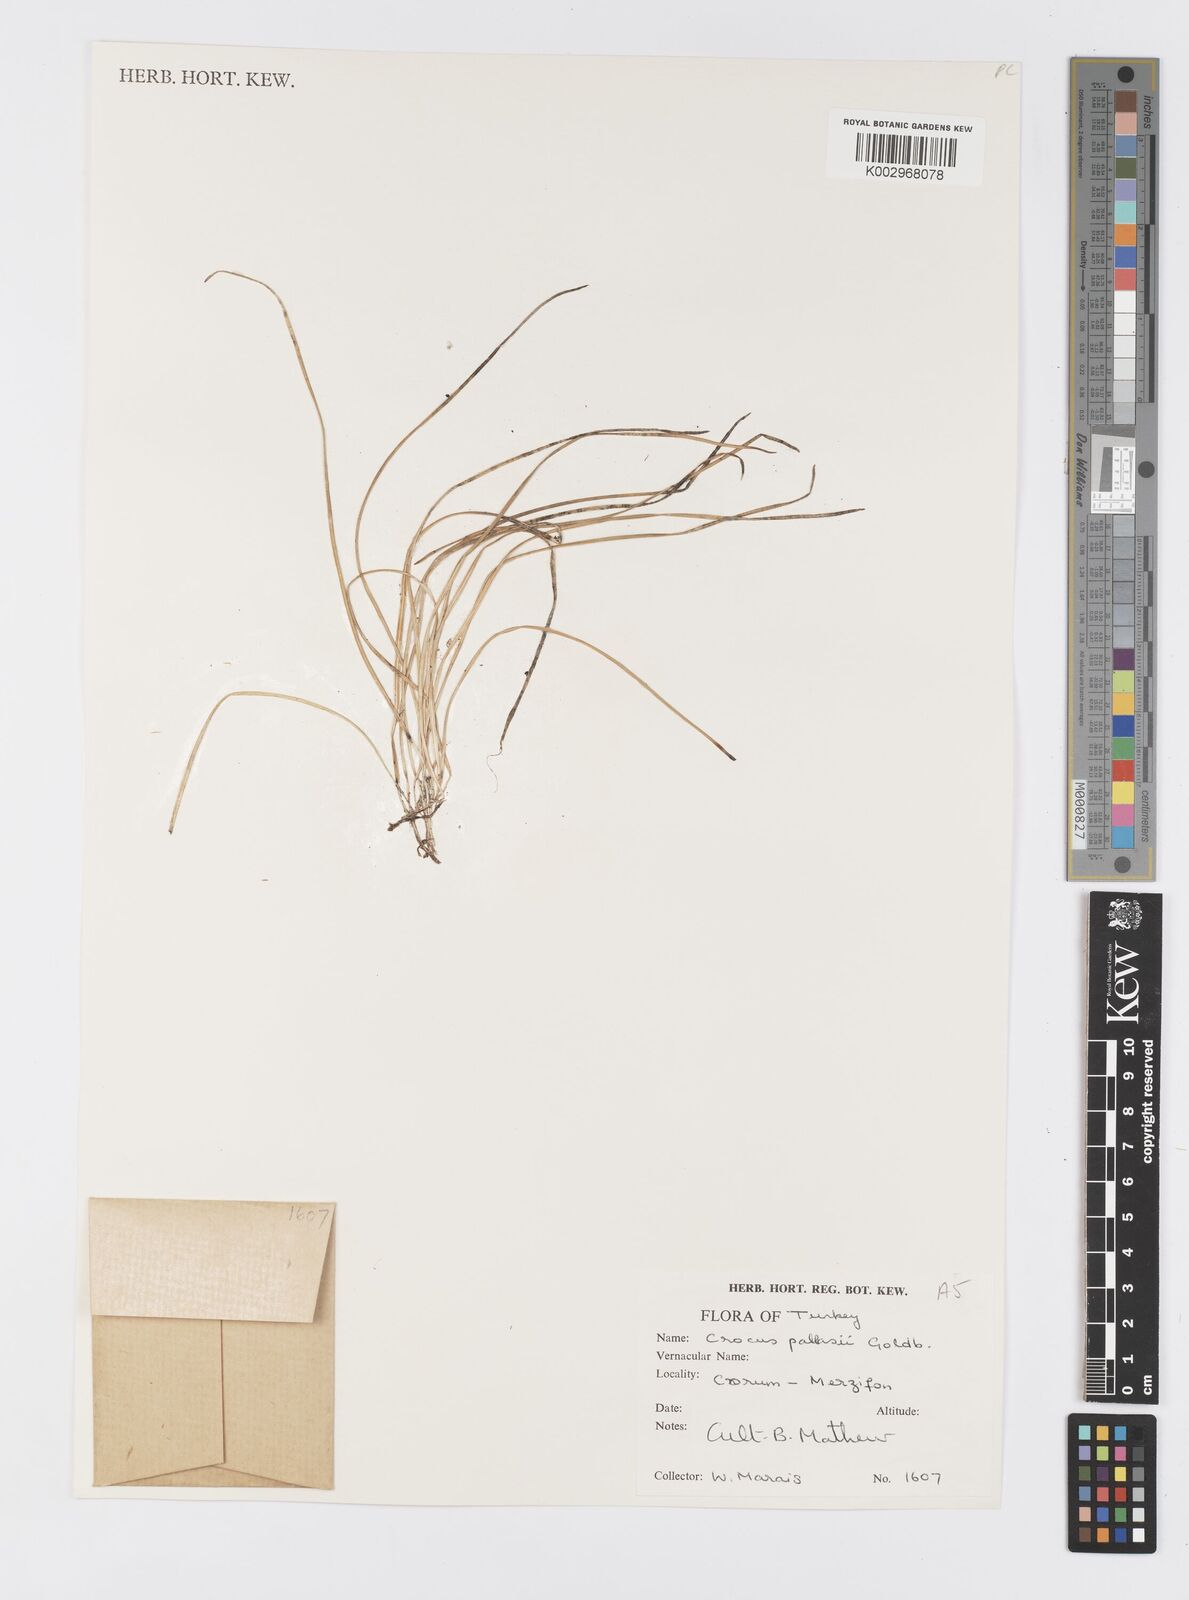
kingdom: Plantae
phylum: Tracheophyta
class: Liliopsida
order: Asparagales
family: Iridaceae
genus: Crocus
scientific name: Crocus
